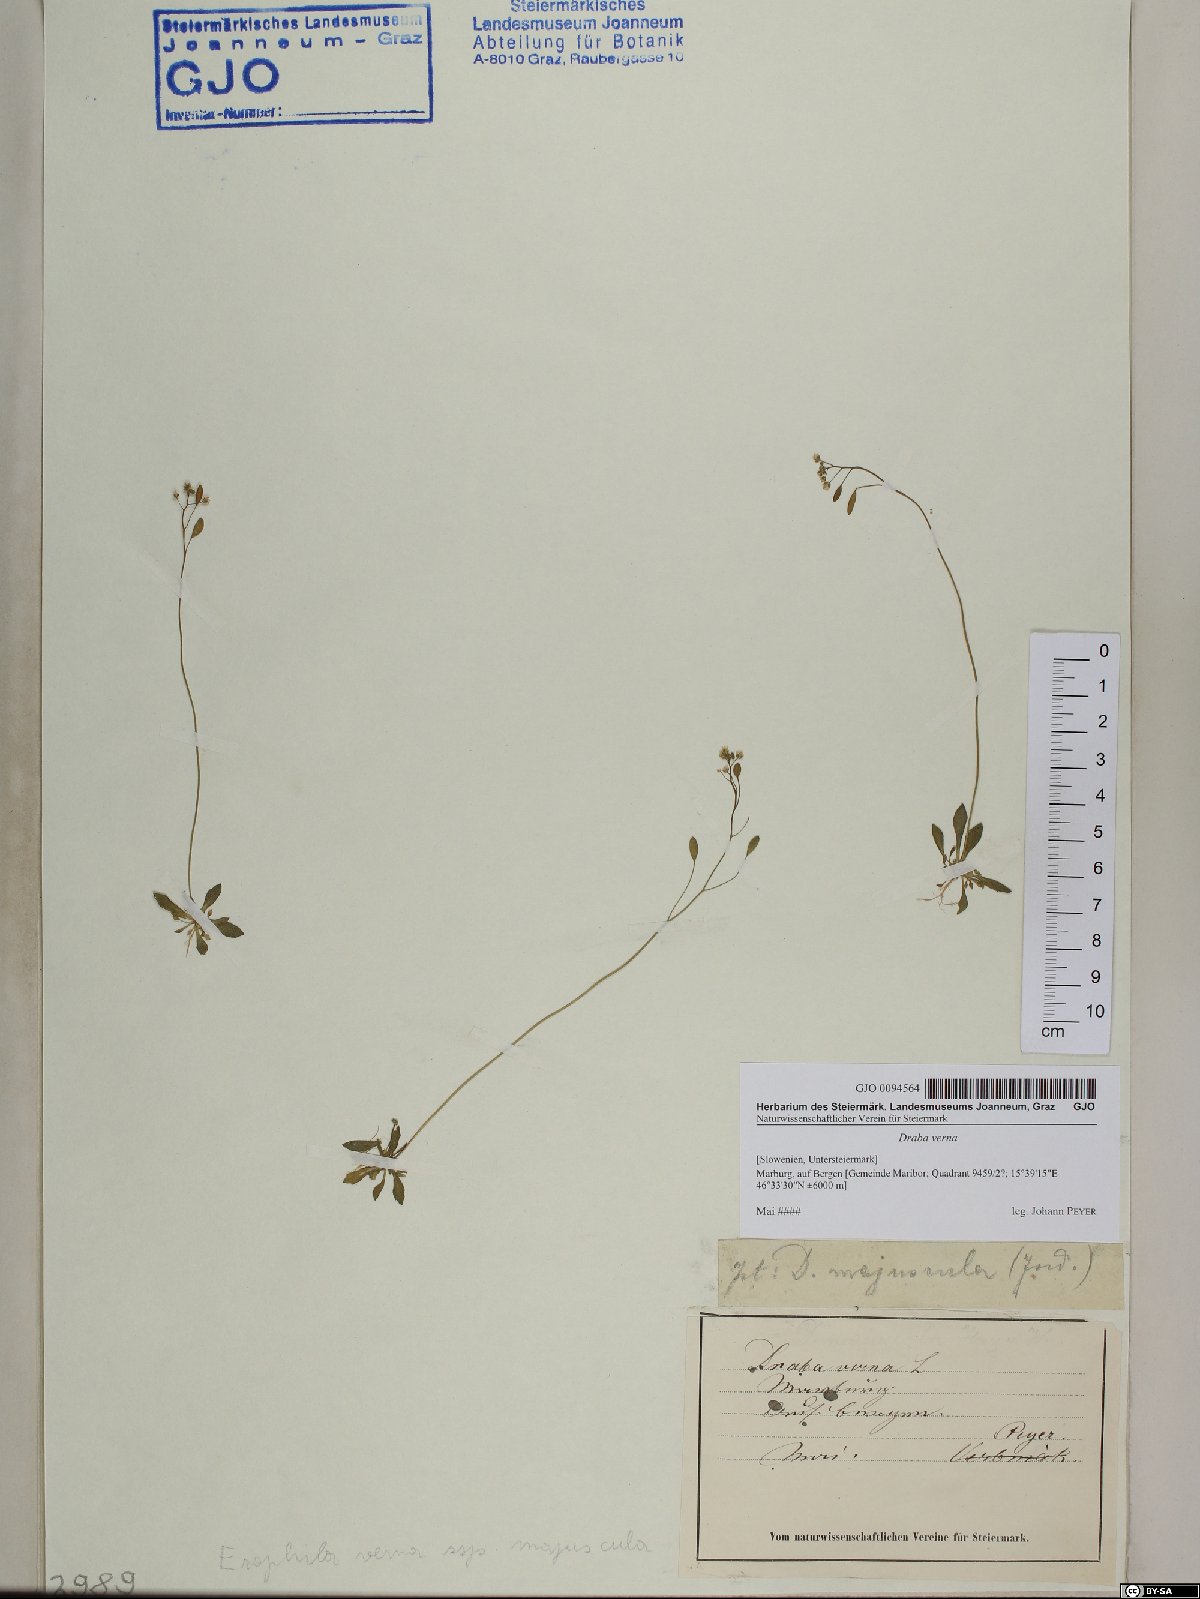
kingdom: Plantae
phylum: Tracheophyta
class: Magnoliopsida
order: Brassicales
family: Brassicaceae
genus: Draba
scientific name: Draba verna
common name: Spring draba
